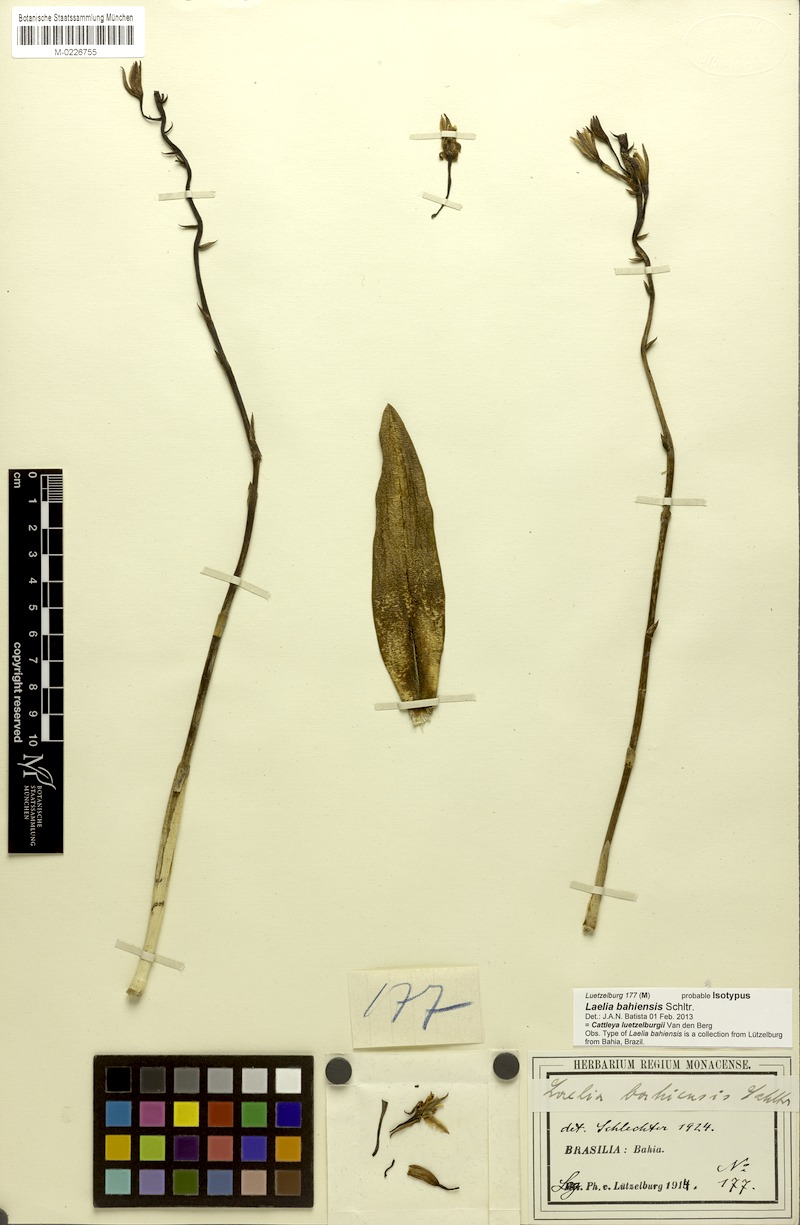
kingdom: Plantae
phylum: Tracheophyta
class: Liliopsida
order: Asparagales
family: Orchidaceae
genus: Cattleya
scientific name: Cattleya luetzelburgii
